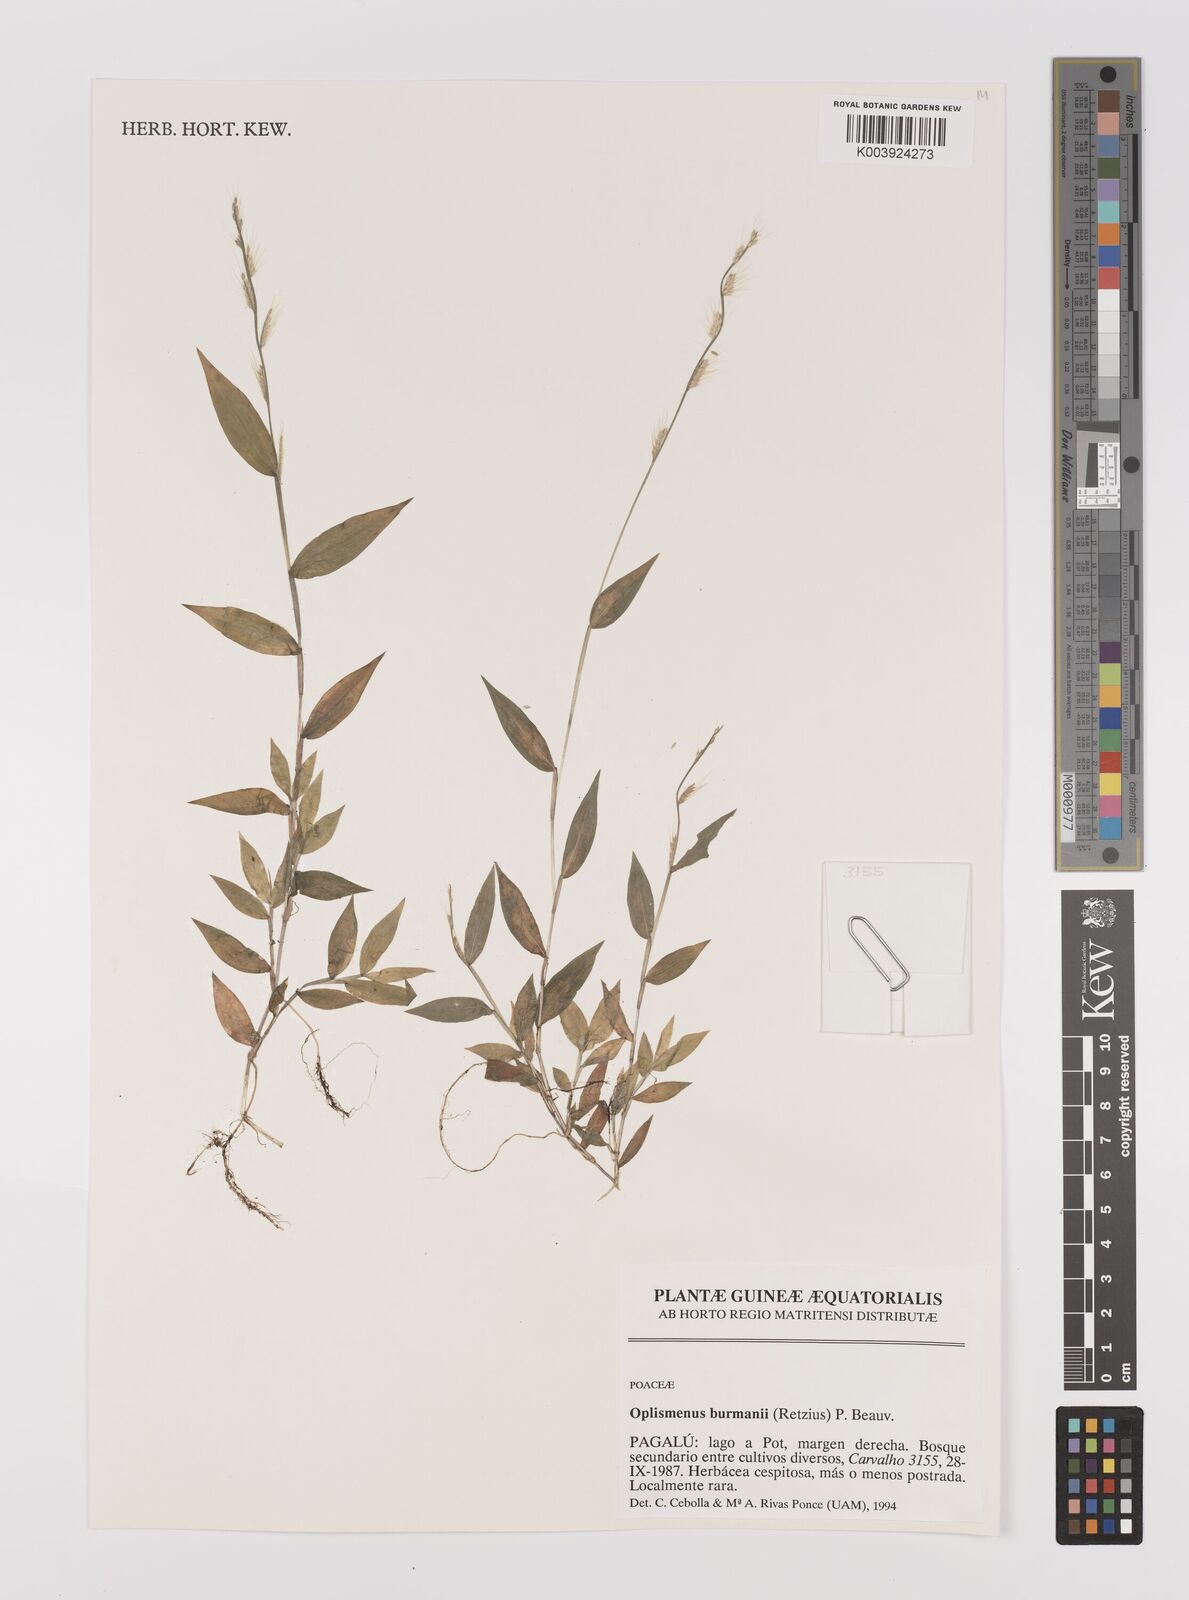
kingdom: Plantae
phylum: Tracheophyta
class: Liliopsida
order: Poales
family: Poaceae
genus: Oplismenus
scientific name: Oplismenus burmanni
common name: Burmann's basketgrass
